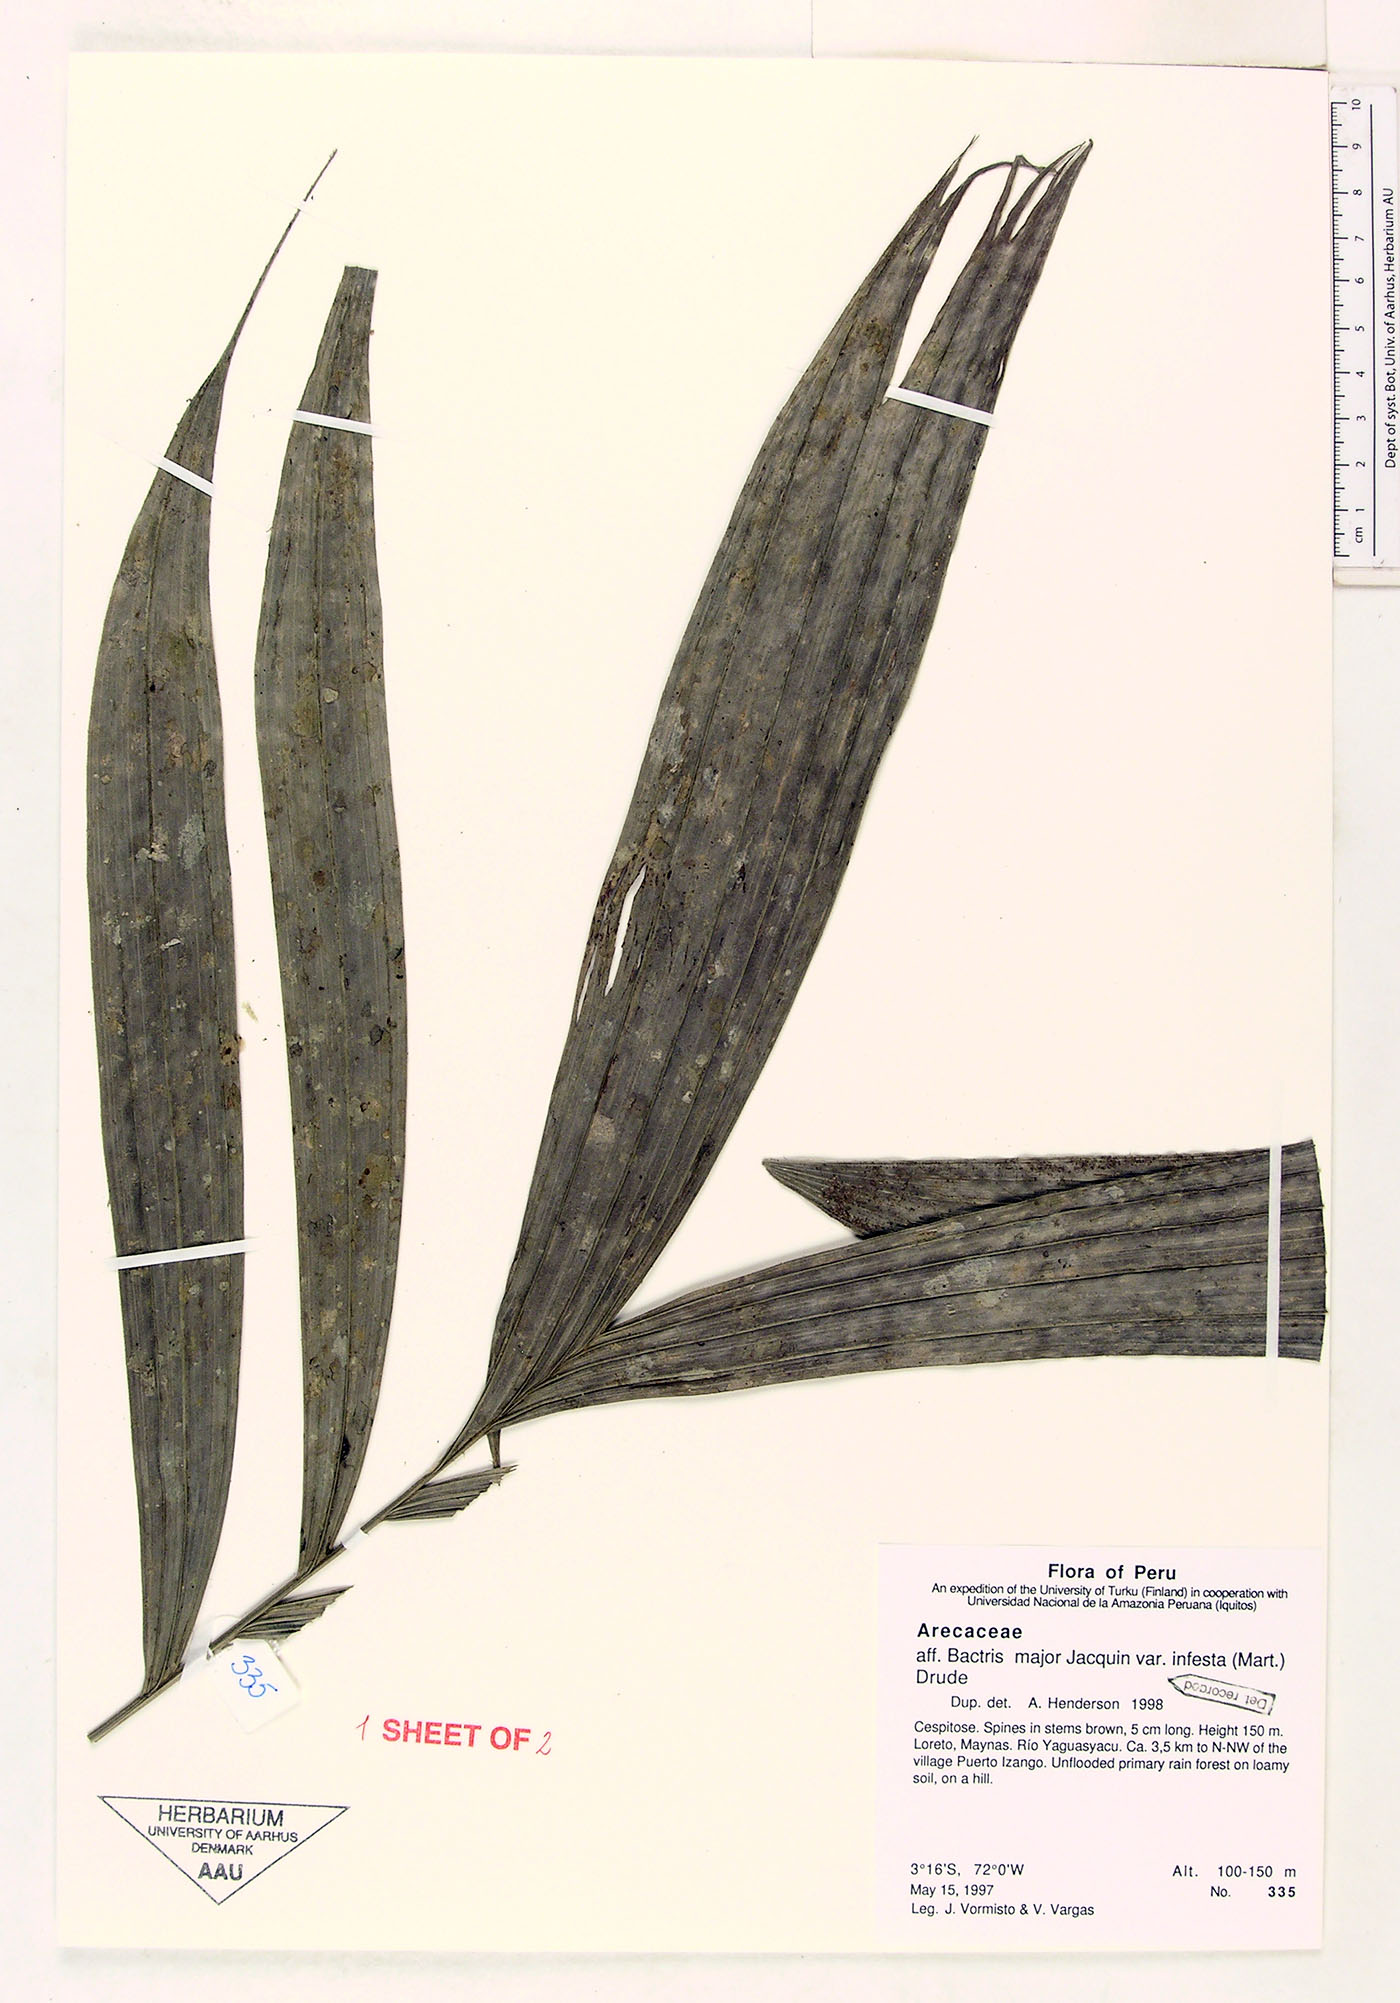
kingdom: Plantae
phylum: Tracheophyta
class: Liliopsida
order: Arecales
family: Arecaceae
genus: Bactris
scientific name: Bactris major
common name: Beach palm
